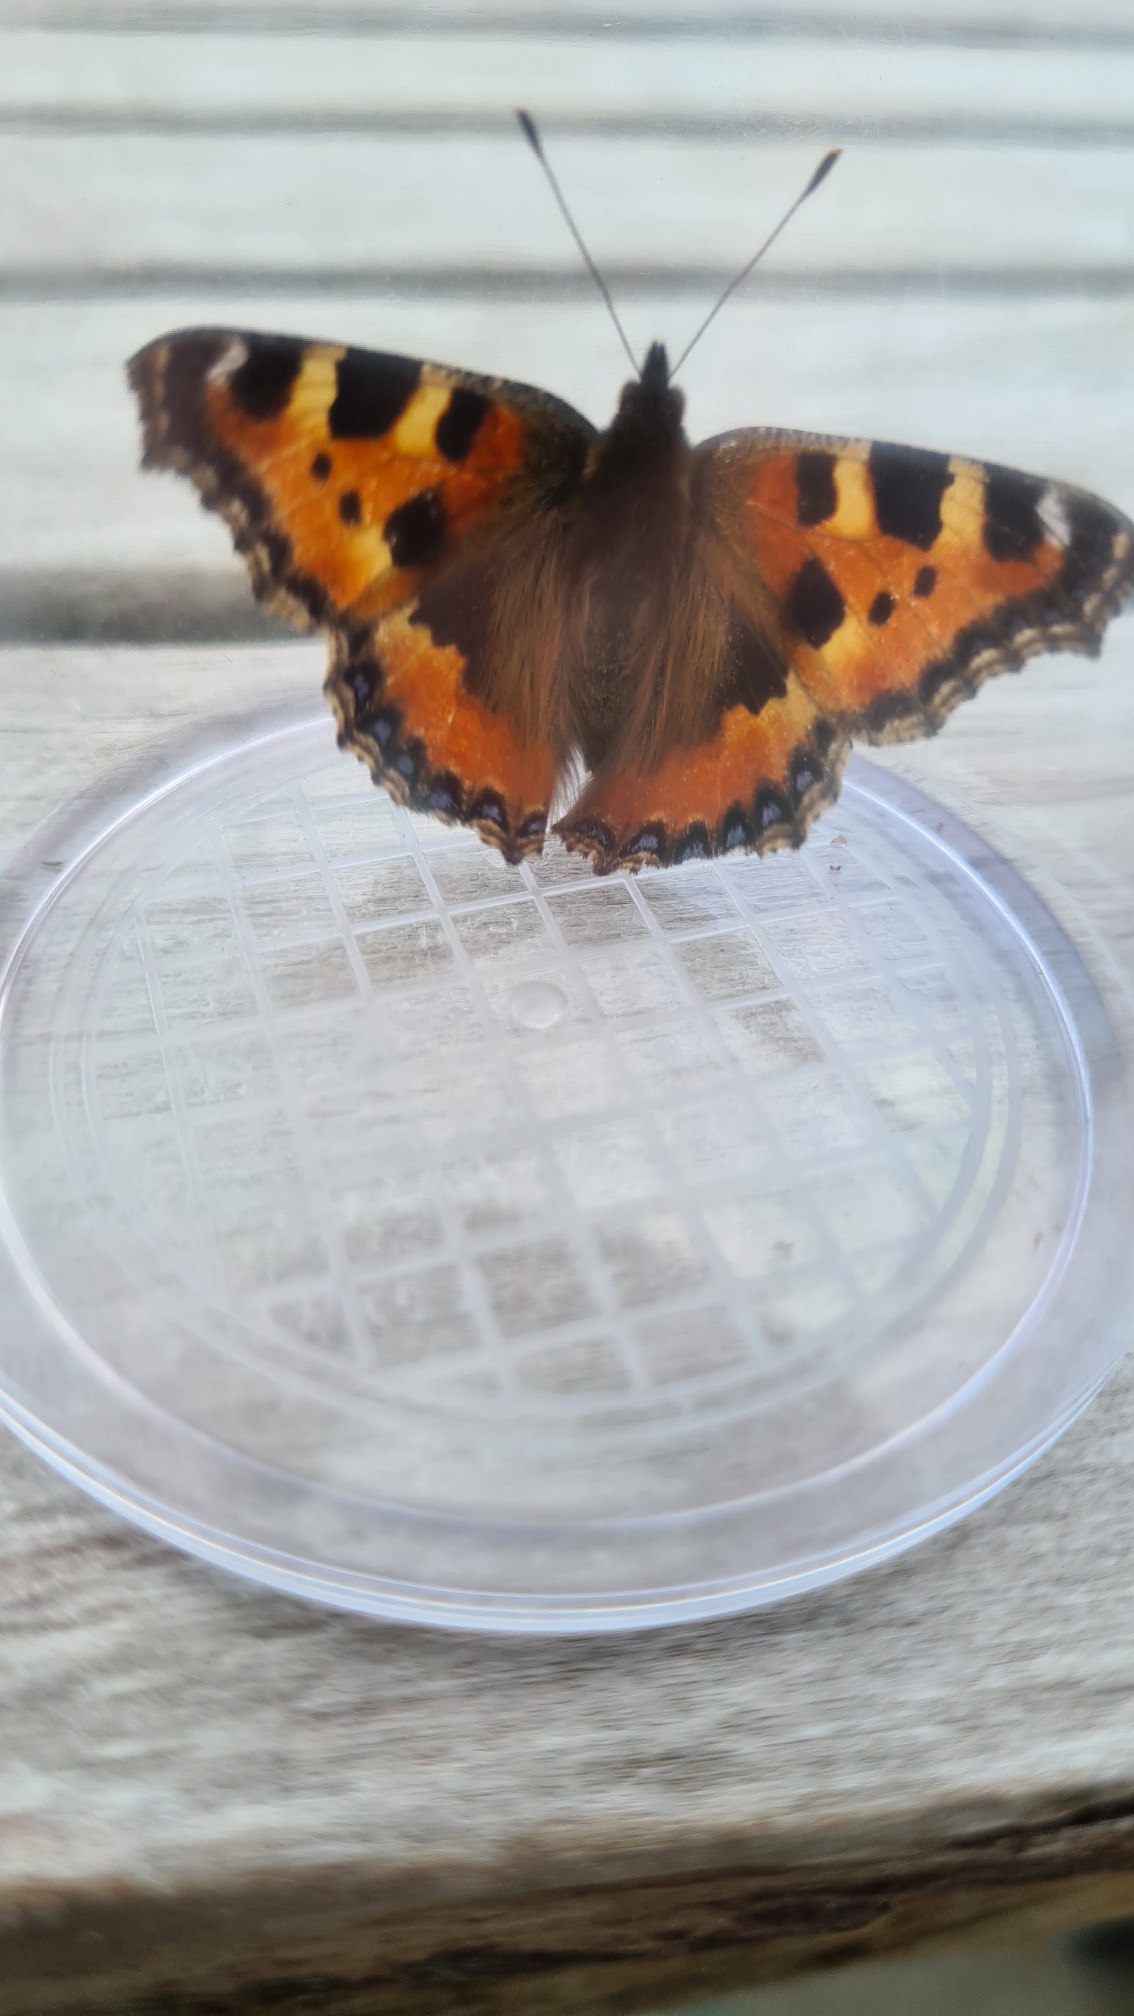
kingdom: Animalia
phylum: Arthropoda
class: Insecta
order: Lepidoptera
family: Nymphalidae
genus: Aglais
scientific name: Aglais urticae
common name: Nældens takvinge
